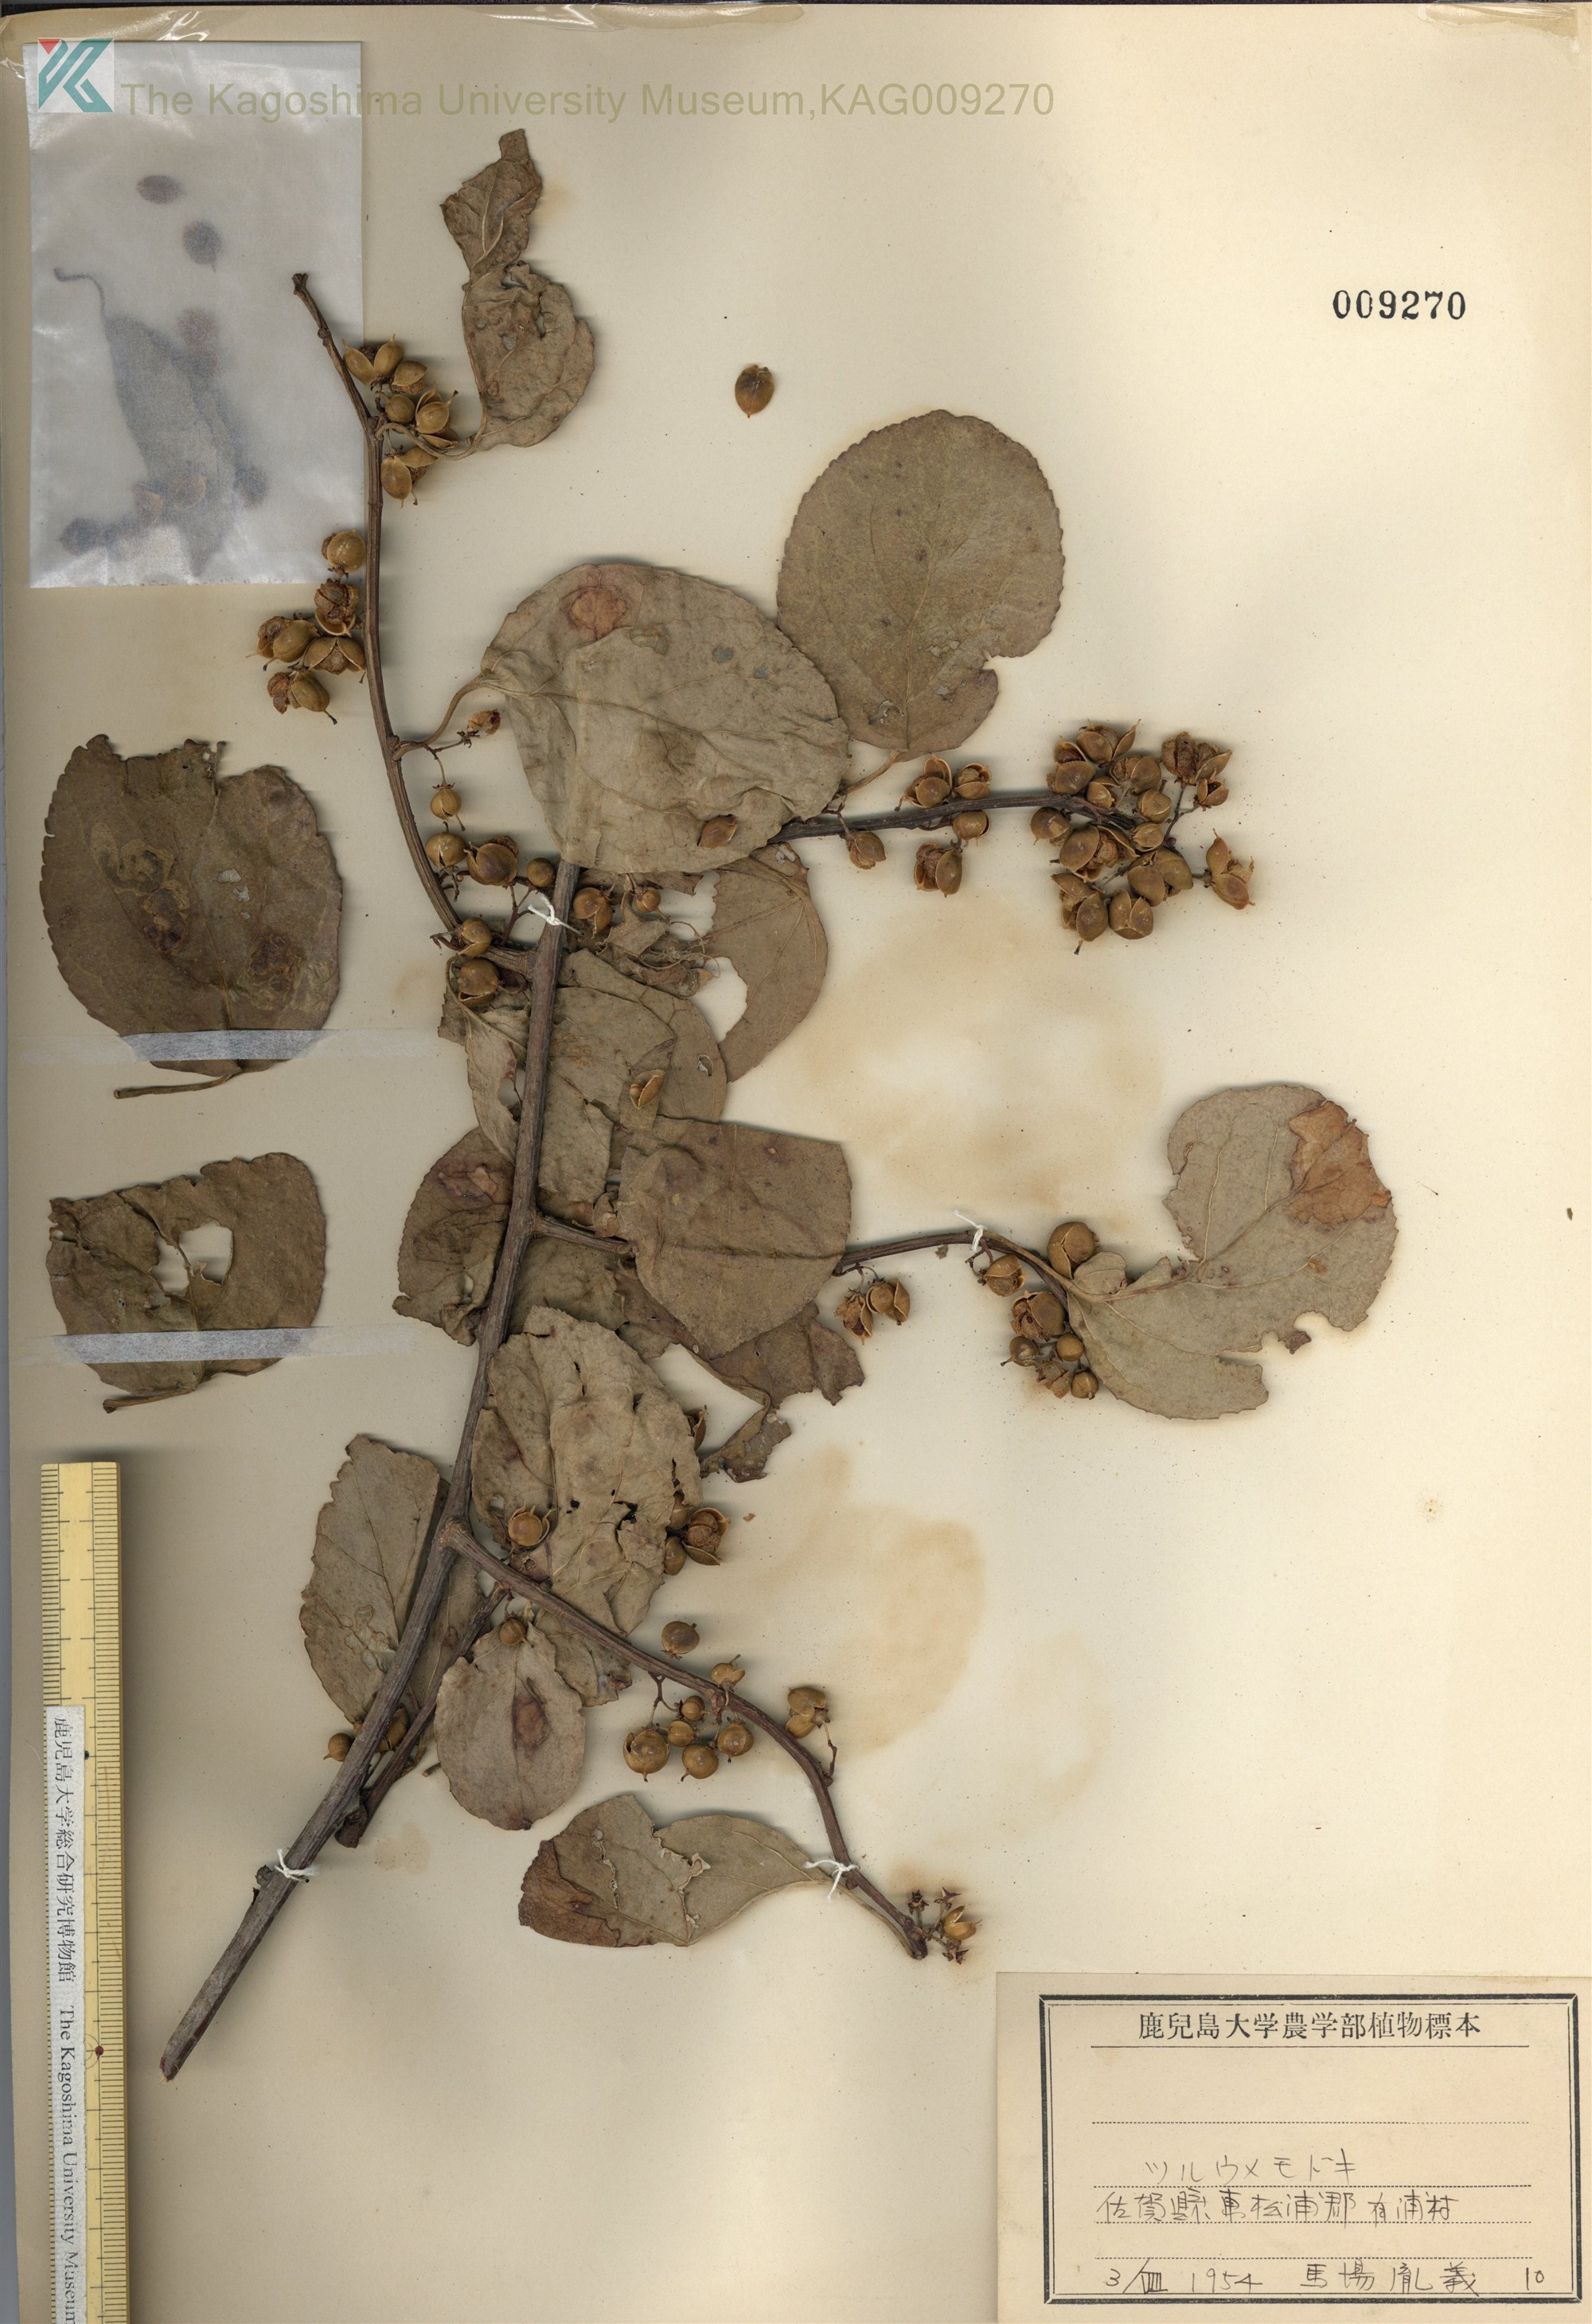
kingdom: Plantae
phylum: Tracheophyta
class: Magnoliopsida
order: Celastrales
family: Celastraceae
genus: Celastrus
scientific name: Celastrus orbiculatus
